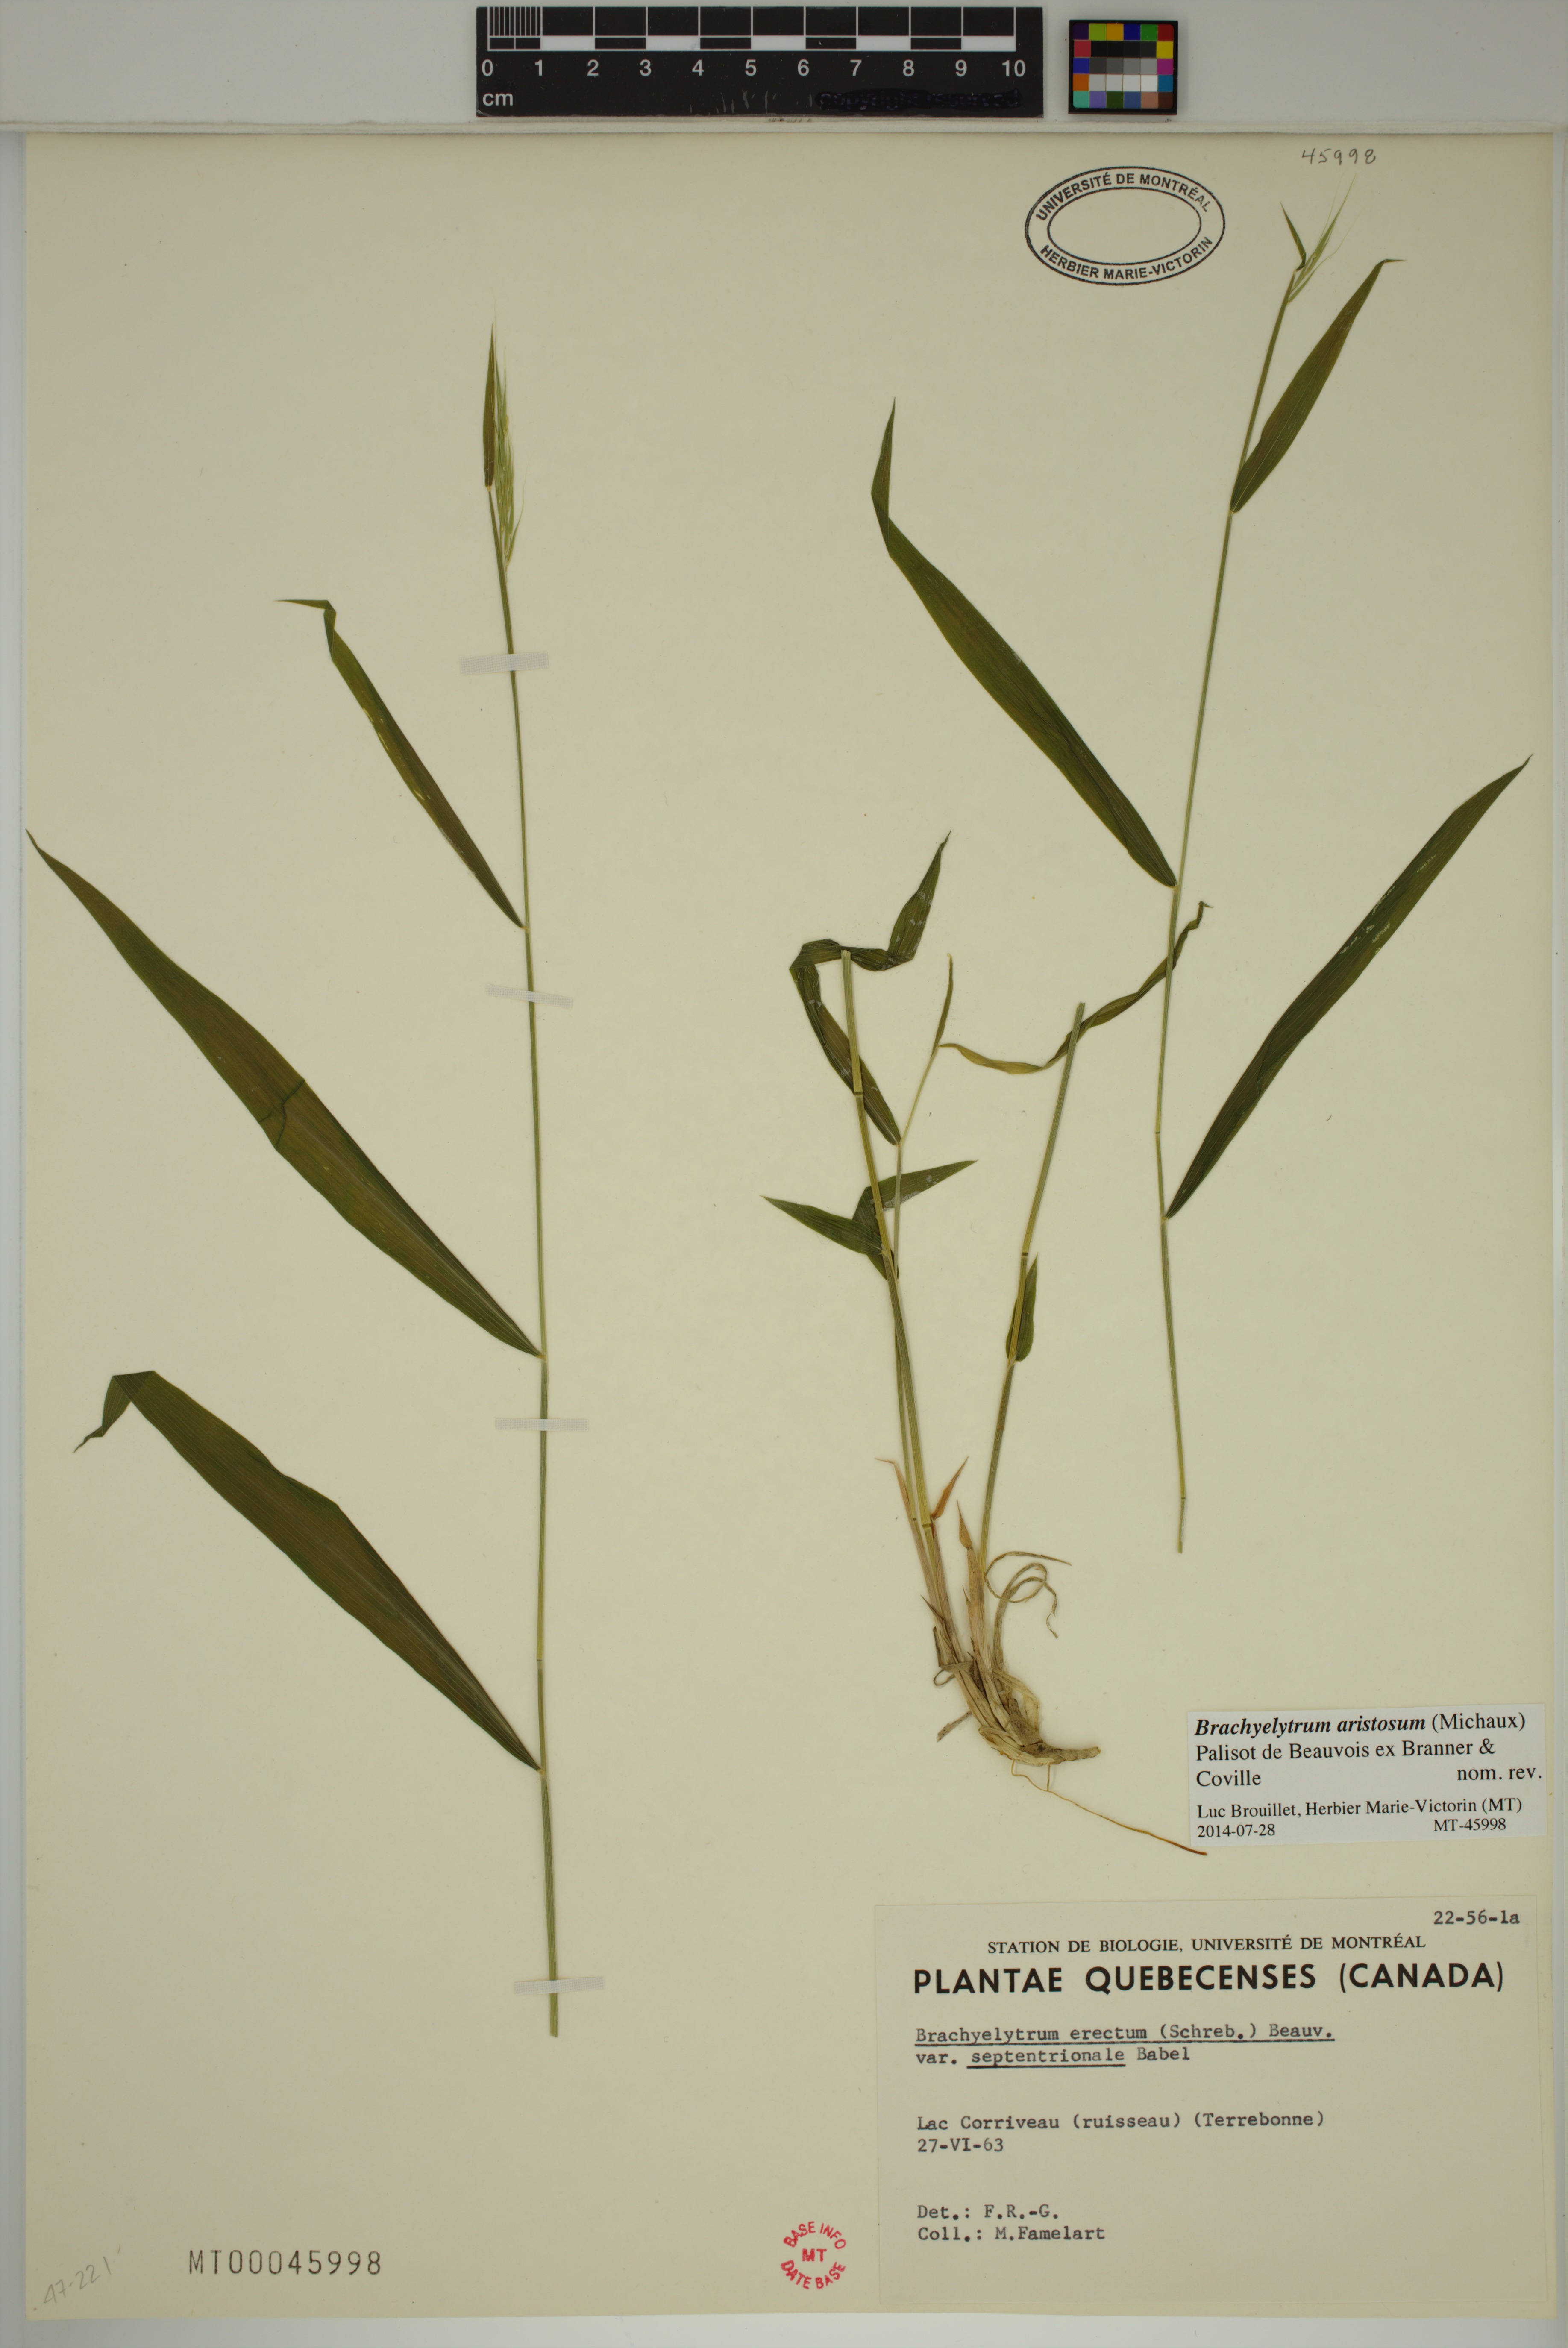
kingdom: Plantae
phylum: Tracheophyta
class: Liliopsida
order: Poales
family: Poaceae
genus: Brachyelytrum
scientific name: Brachyelytrum aristosum
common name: Northern shorthusk
